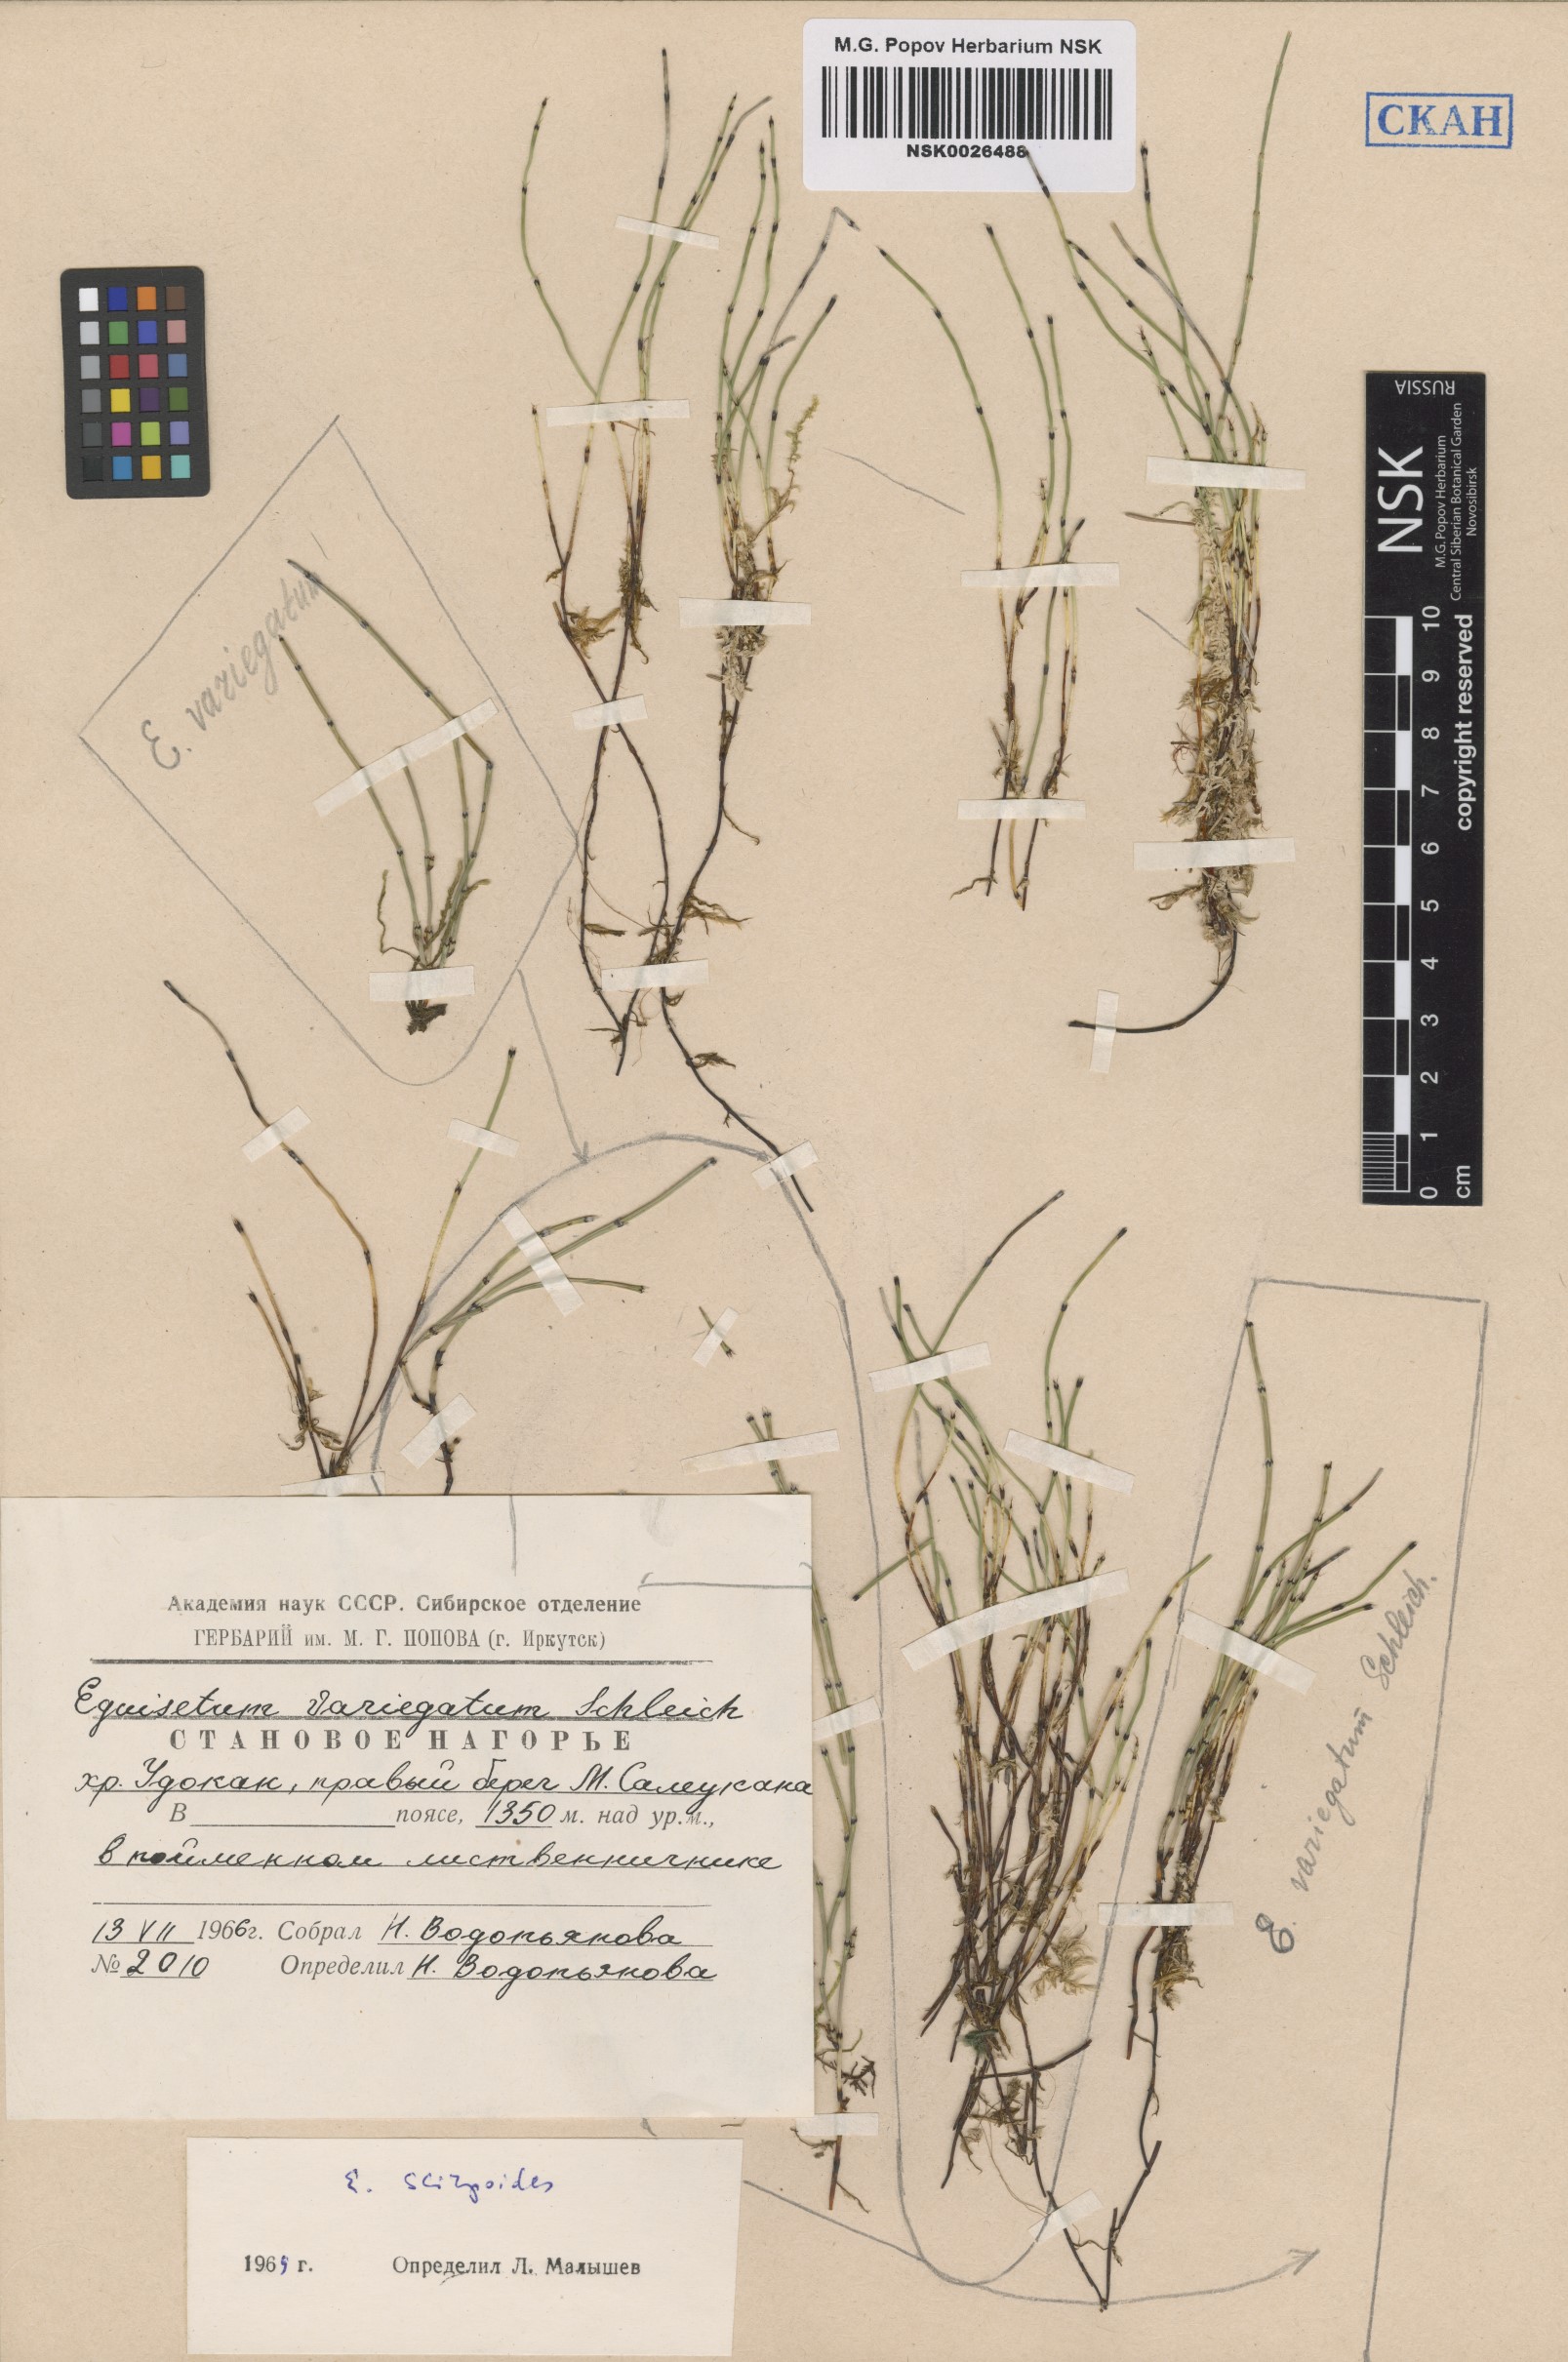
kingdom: Plantae
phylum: Tracheophyta
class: Polypodiopsida
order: Equisetales
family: Equisetaceae
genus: Equisetum
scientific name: Equisetum variegatum
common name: Variegated horsetail
